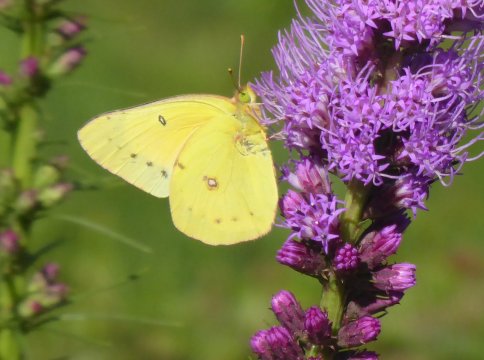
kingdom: Animalia
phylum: Arthropoda
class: Insecta
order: Lepidoptera
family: Pieridae
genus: Colias
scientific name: Colias eurytheme
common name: Orange Sulphur
